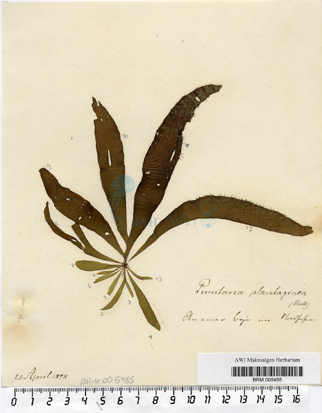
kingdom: Chromista
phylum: Ochrophyta
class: Phaeophyceae
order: Ectocarpales
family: Chordariaceae
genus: Punctaria
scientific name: Punctaria plantaginea
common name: Ribbon weed
